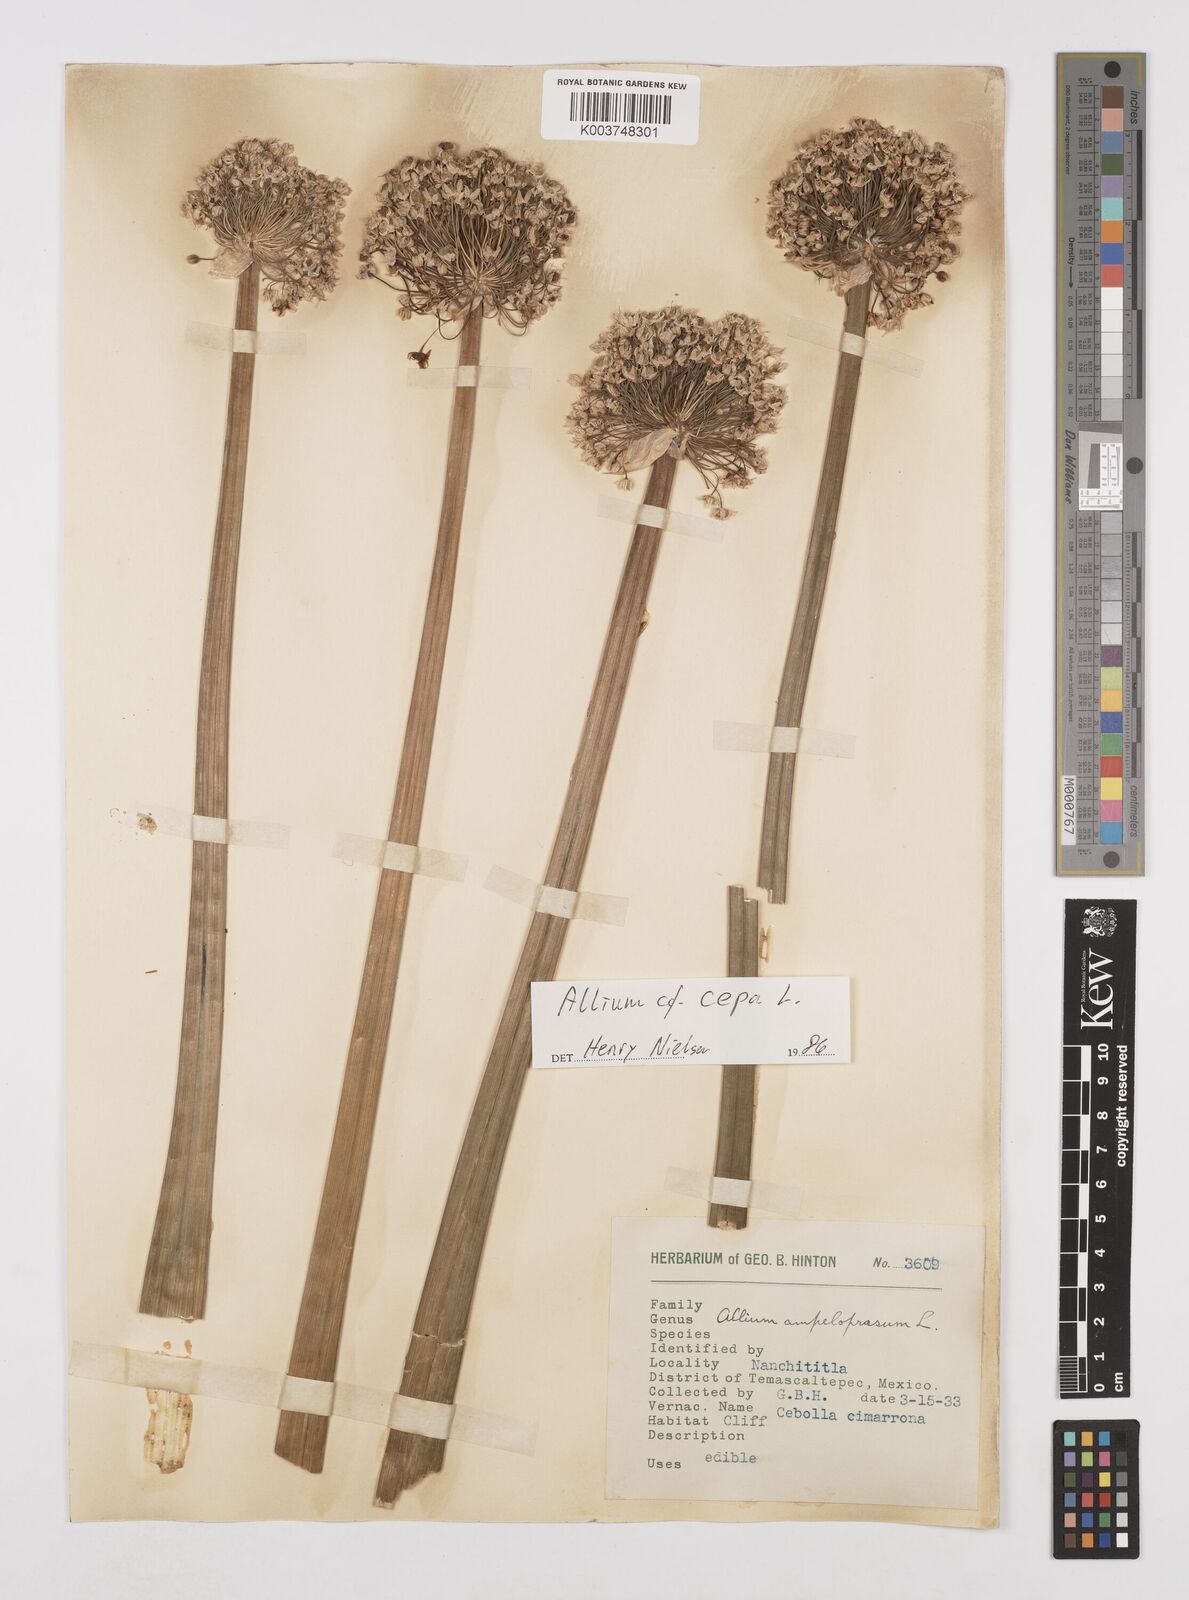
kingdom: Plantae
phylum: Tracheophyta
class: Liliopsida
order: Asparagales
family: Amaryllidaceae
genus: Allium
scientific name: Allium cepa
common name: Onion
